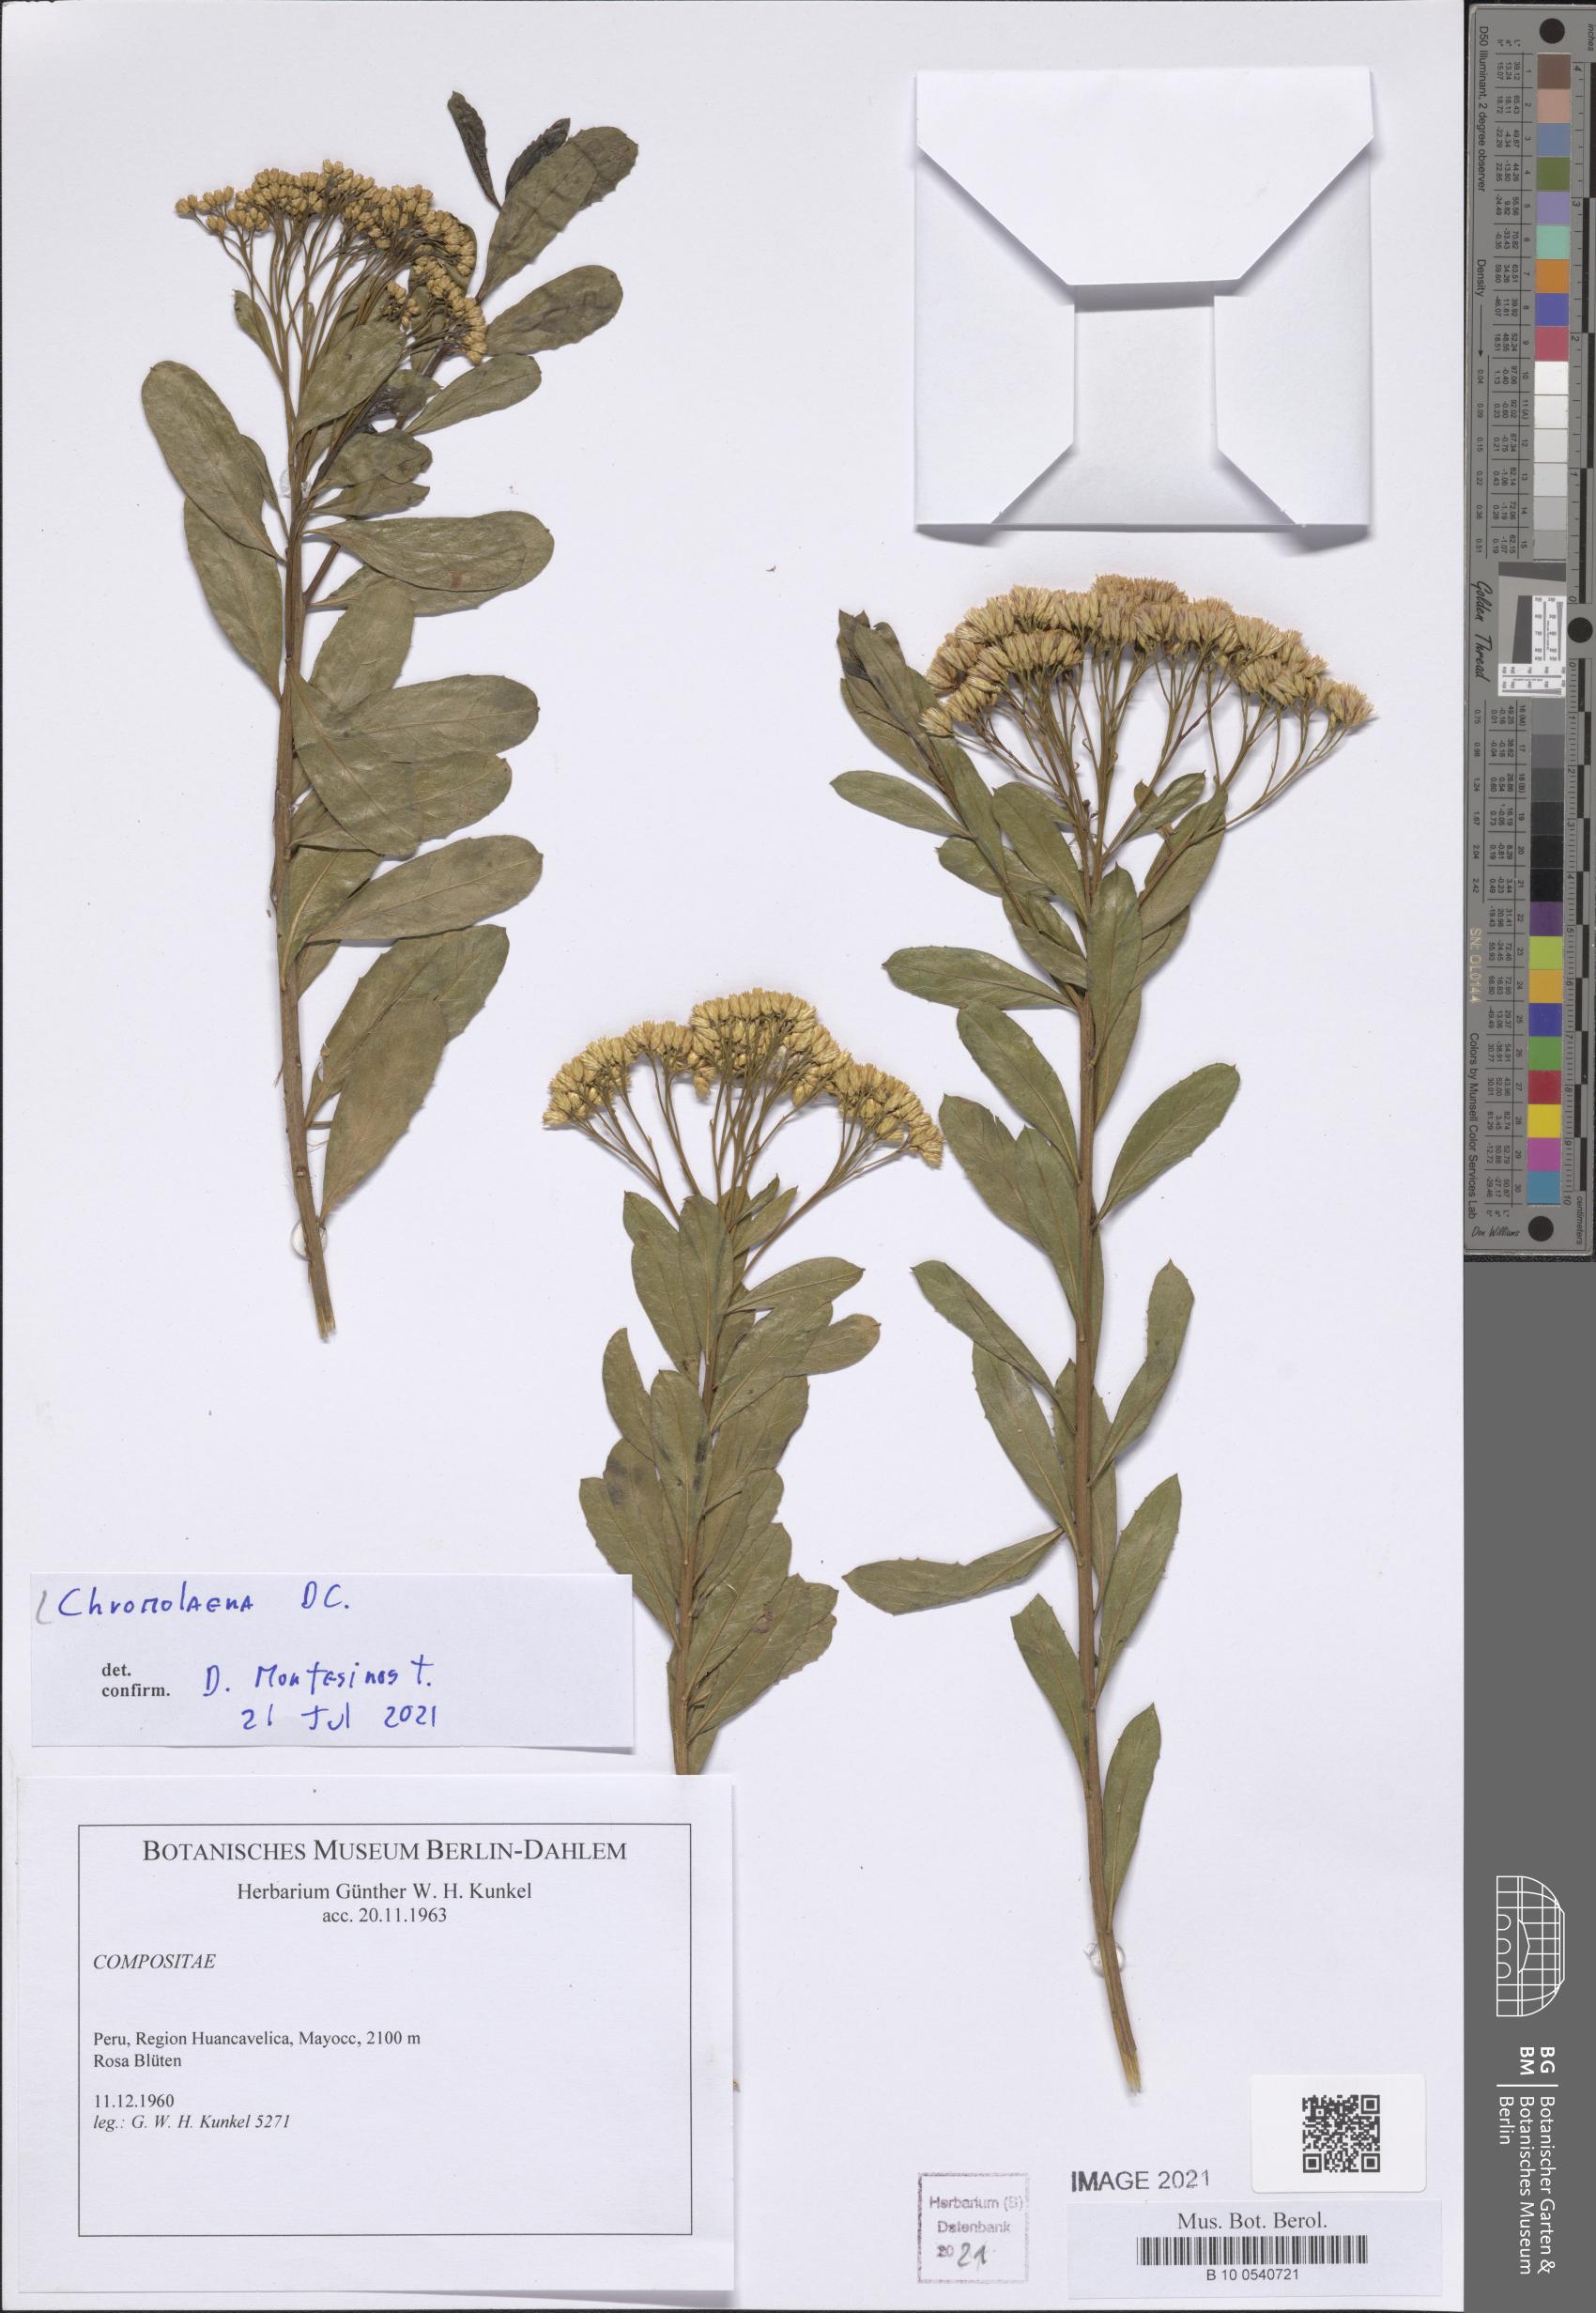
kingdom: Plantae
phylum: Tracheophyta
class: Magnoliopsida
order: Asterales
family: Asteraceae
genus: Chromolaena
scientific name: Chromolaena
